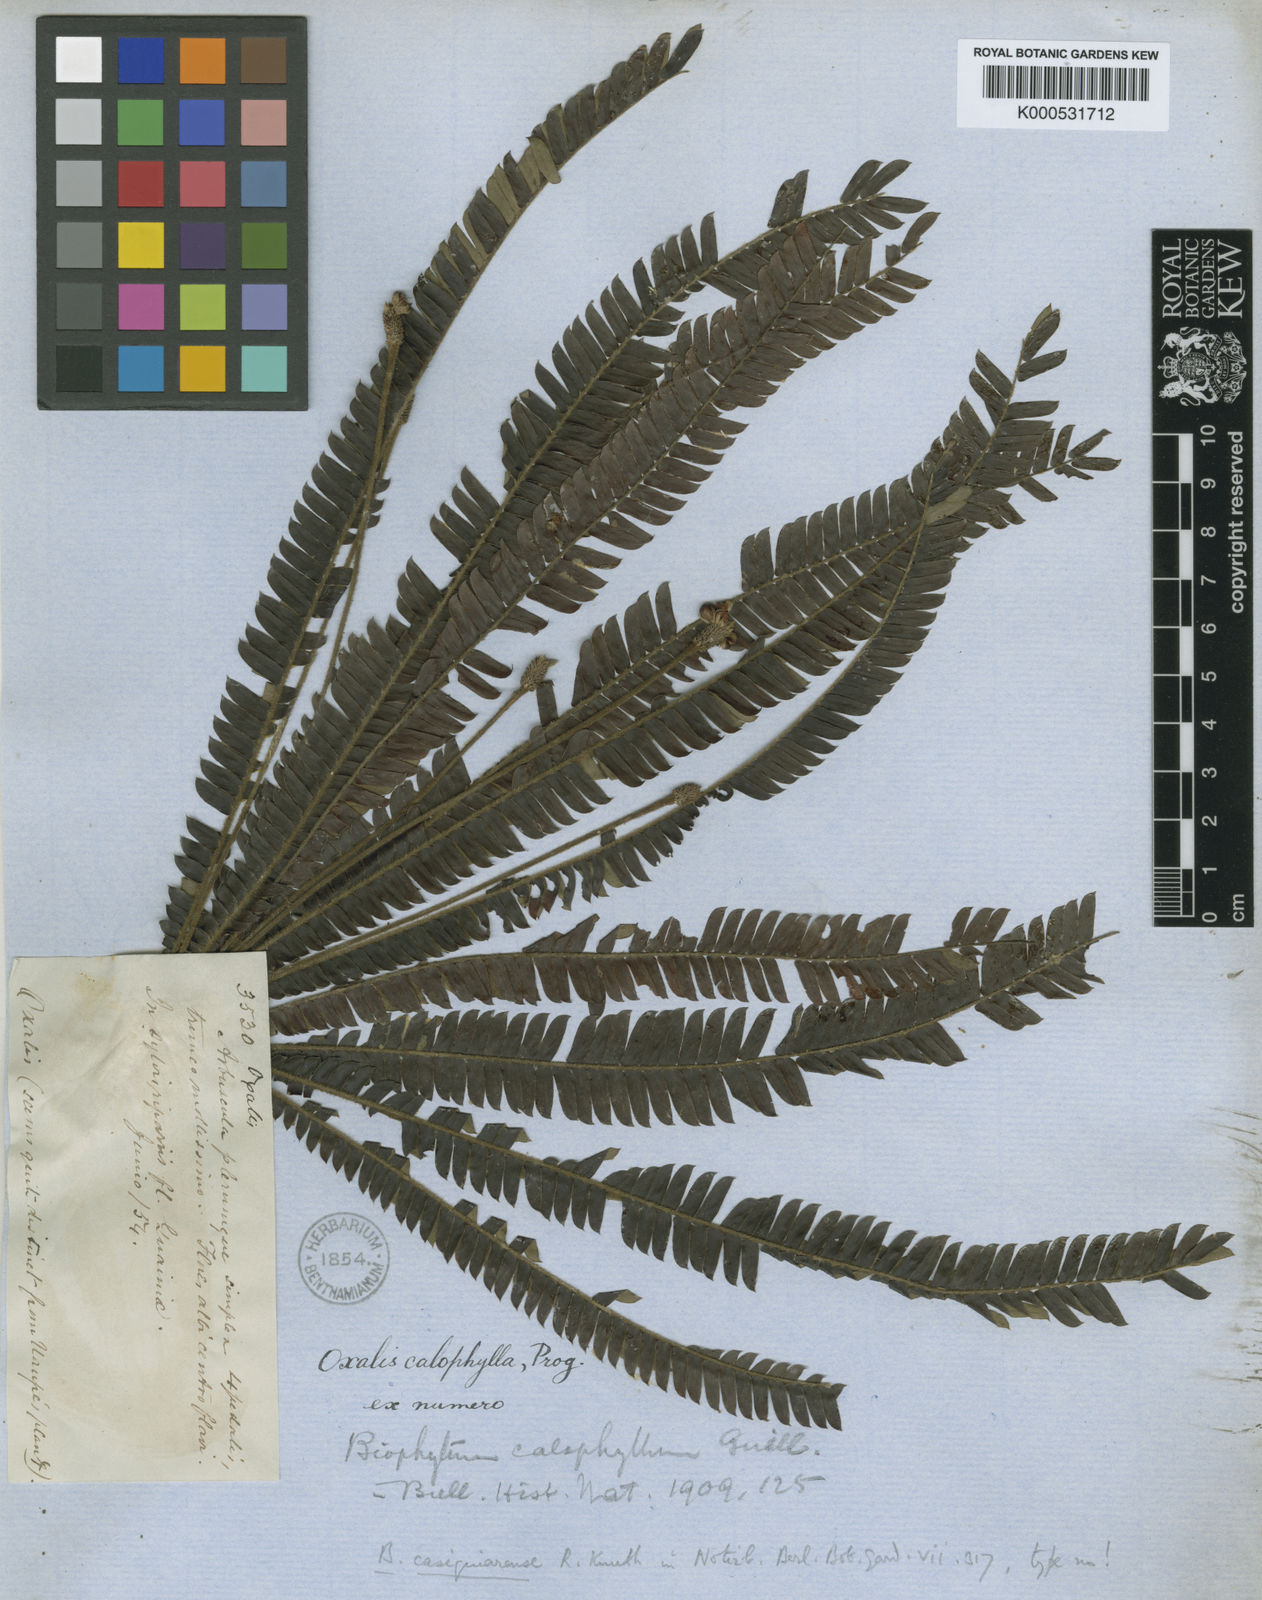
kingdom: Plantae
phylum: Tracheophyta
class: Magnoliopsida
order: Oxalidales
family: Oxalidaceae
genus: Biophytum
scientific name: Biophytum calophyllum
